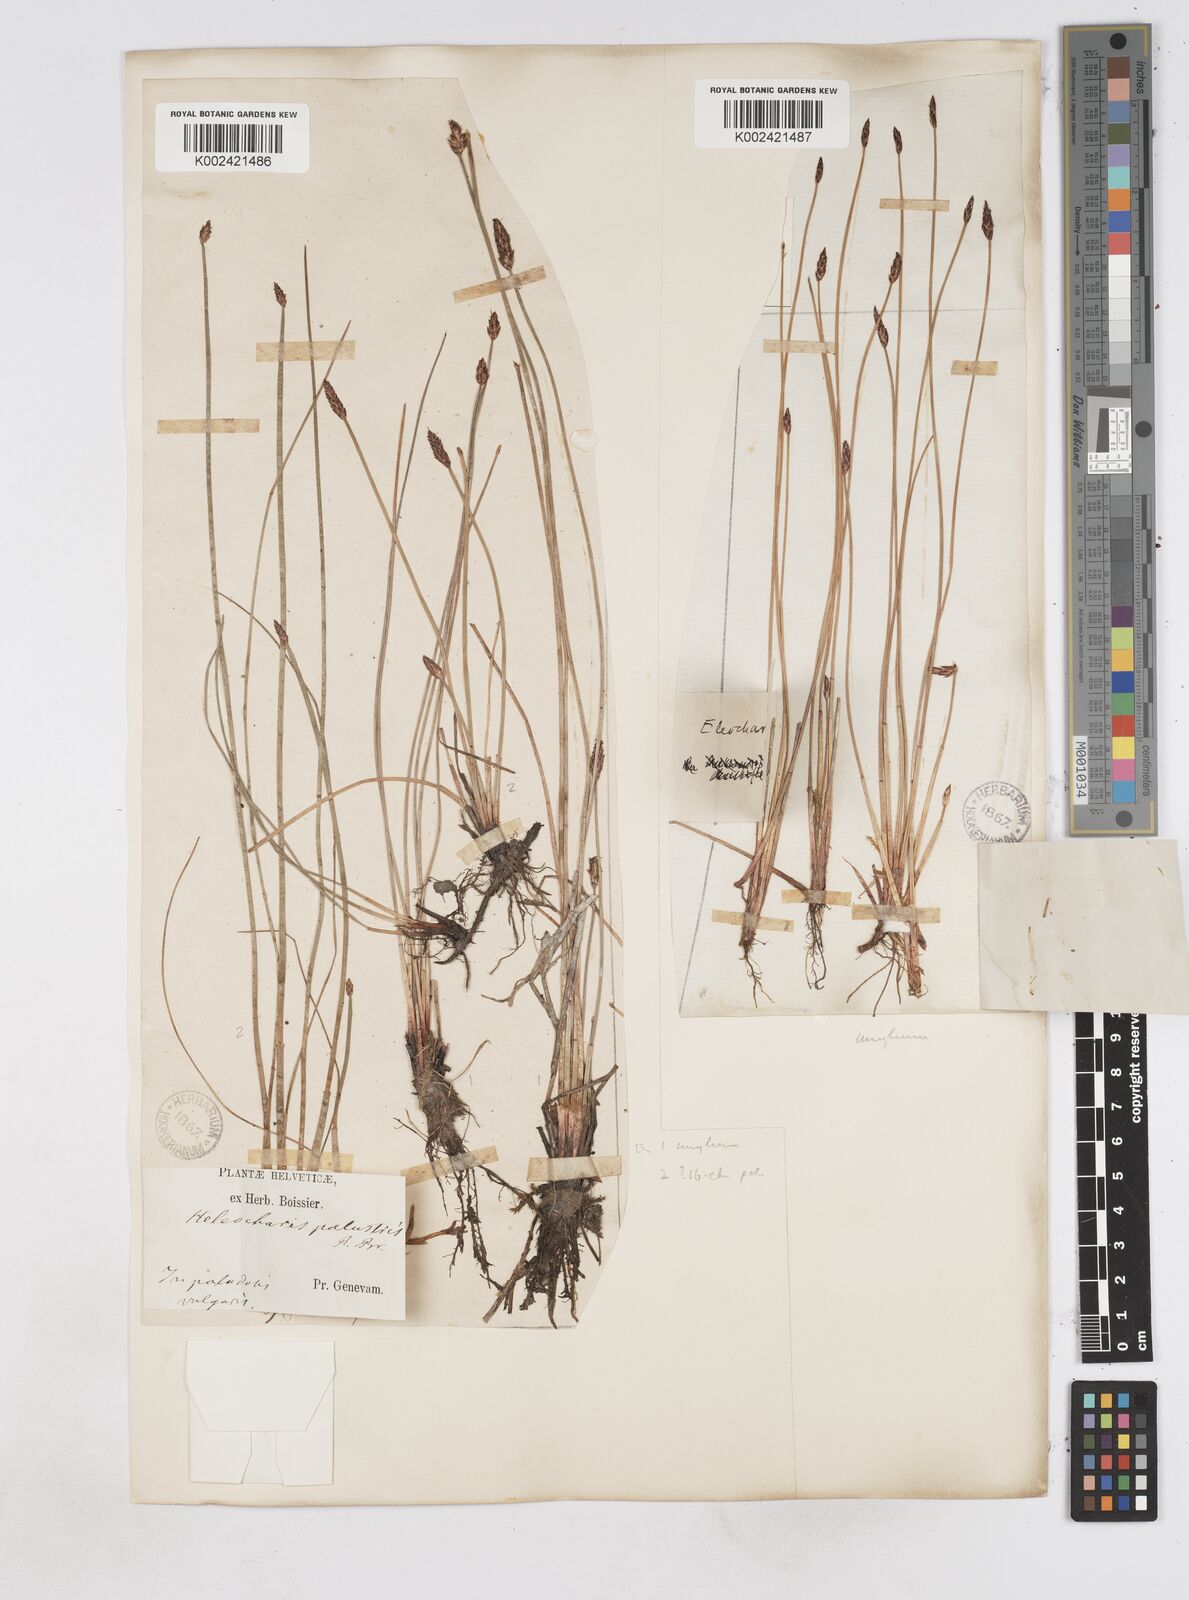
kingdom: Plantae
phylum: Tracheophyta
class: Liliopsida
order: Poales
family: Cyperaceae
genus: Eleocharis
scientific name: Eleocharis uniglumis
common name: Slender spike-rush
